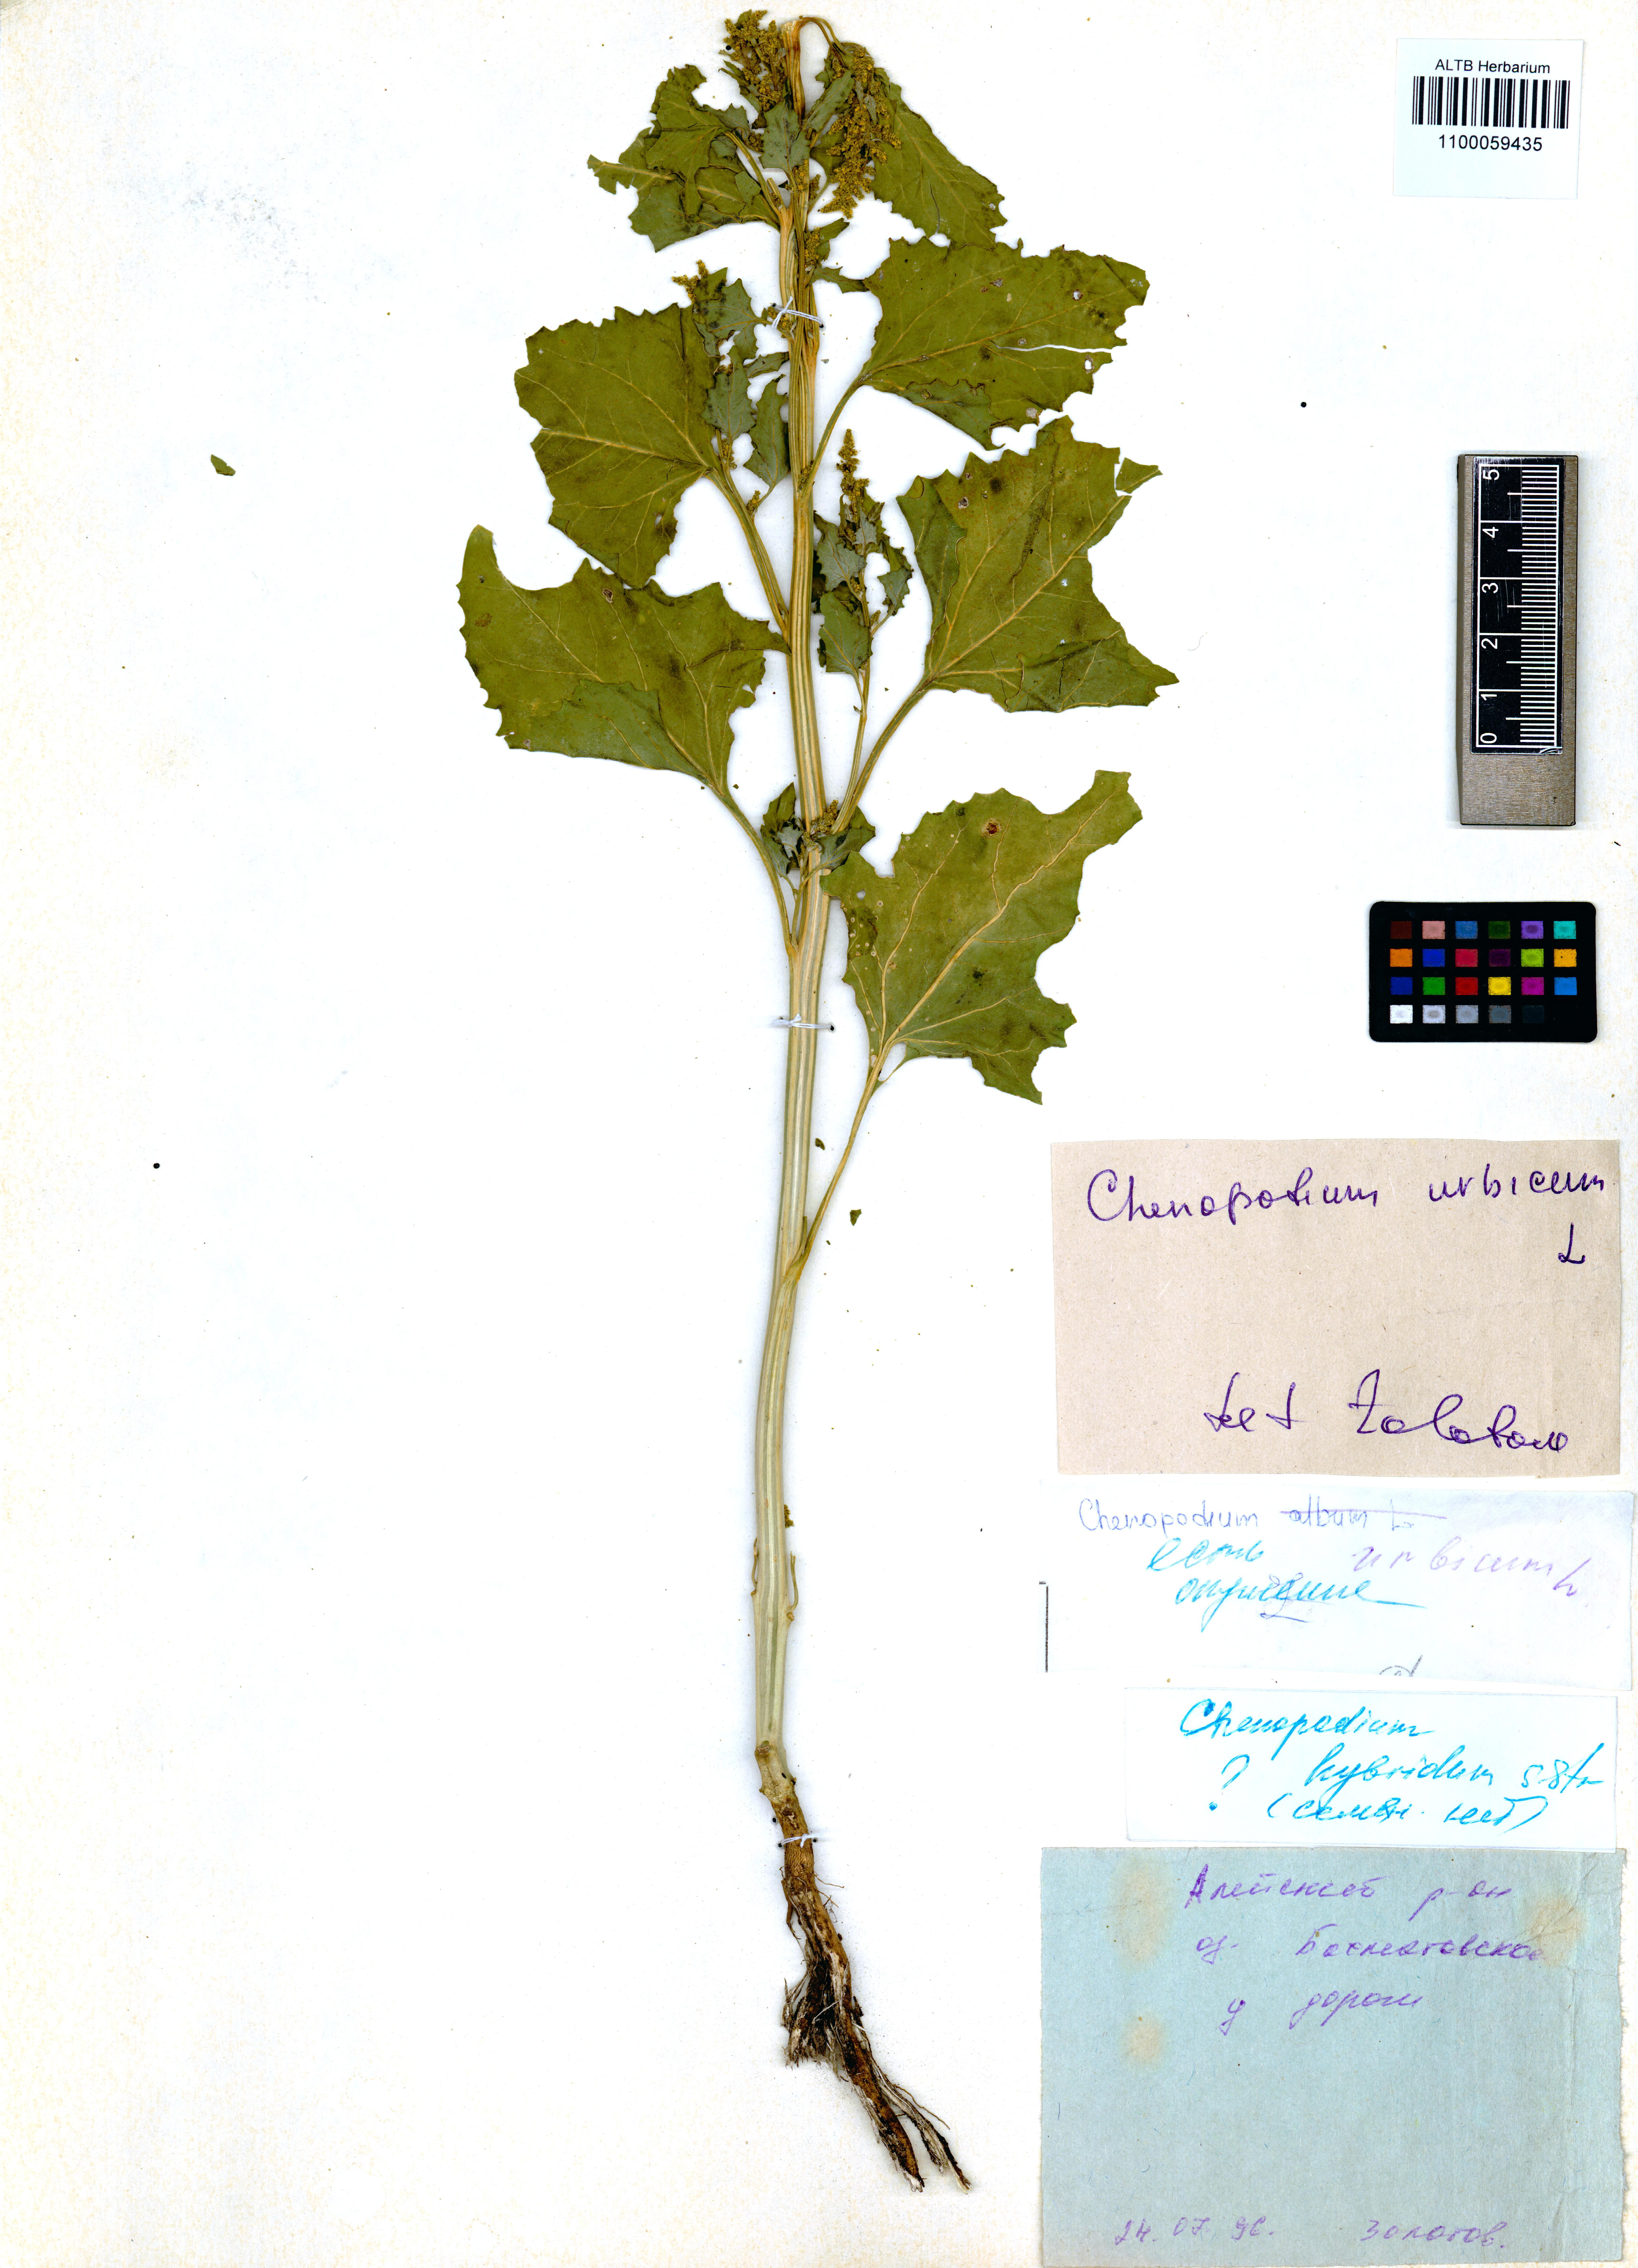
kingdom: Plantae
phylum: Tracheophyta
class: Magnoliopsida
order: Caryophyllales
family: Amaranthaceae
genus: Oxybasis
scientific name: Oxybasis urbica
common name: City goosefoot
